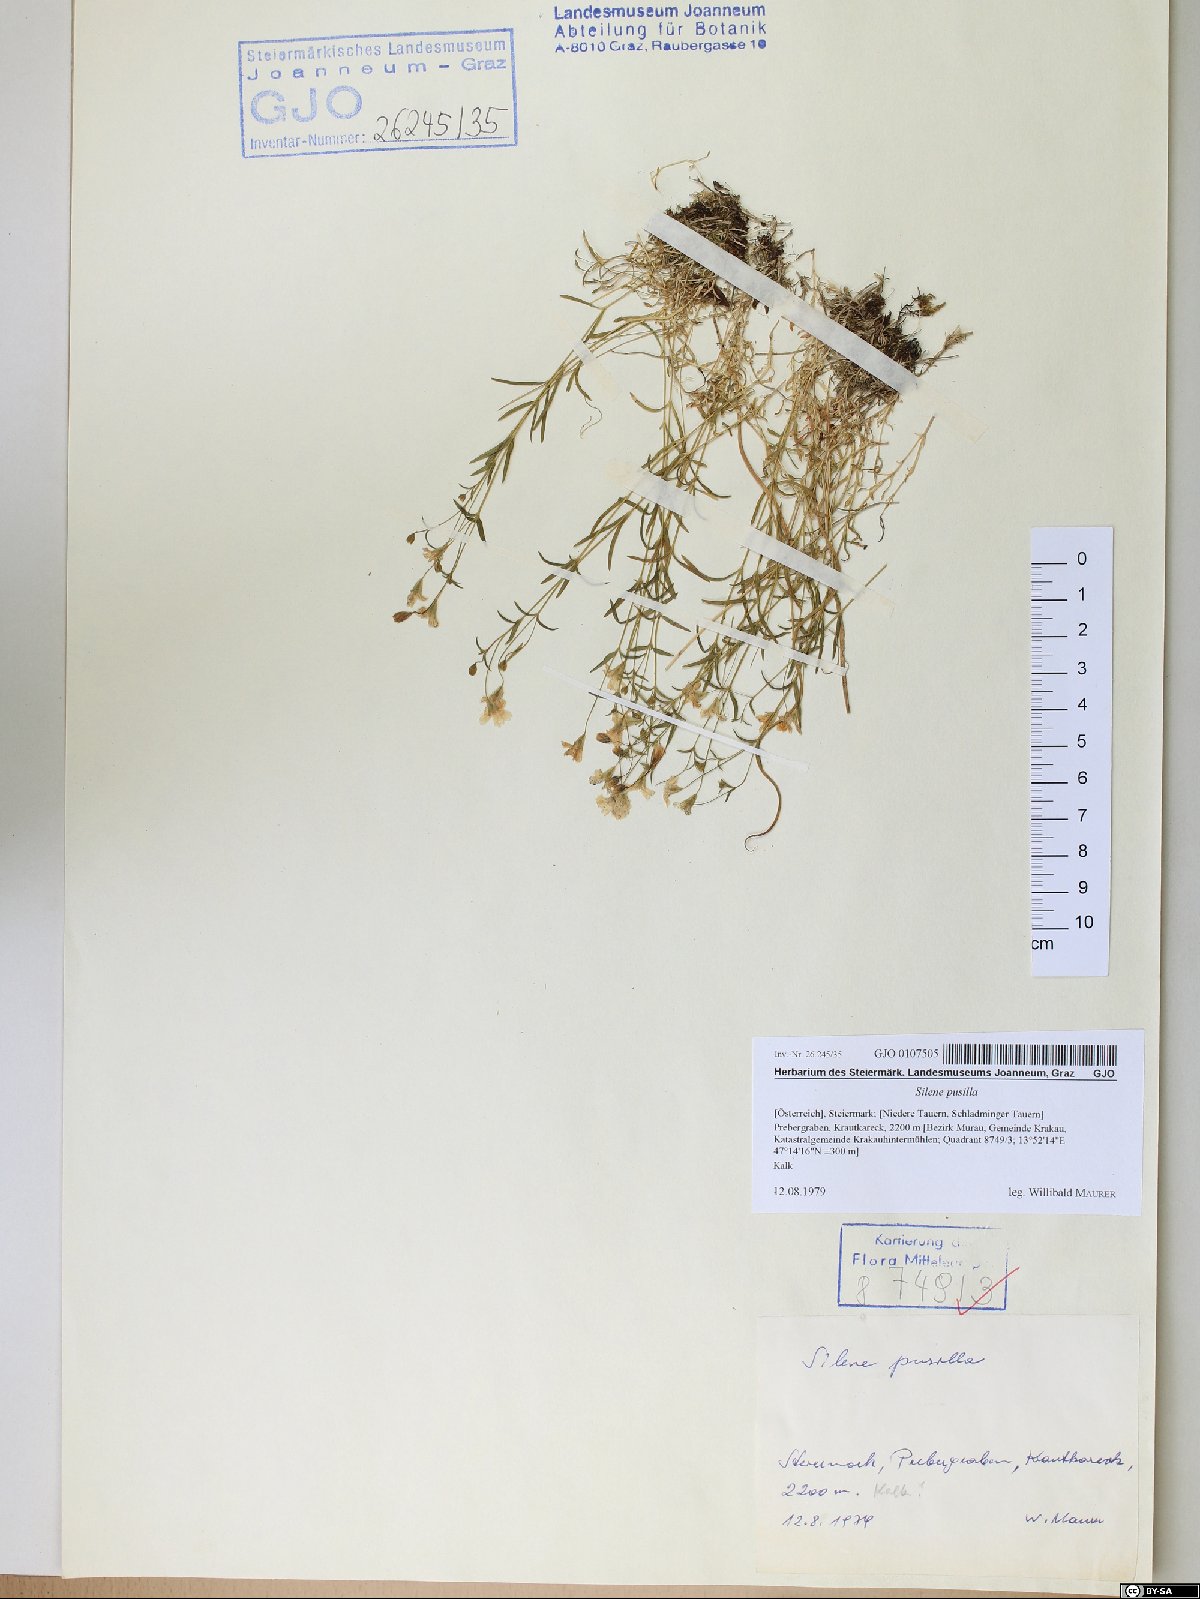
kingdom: Plantae
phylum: Tracheophyta
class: Magnoliopsida
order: Caryophyllales
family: Caryophyllaceae
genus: Heliosperma
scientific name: Heliosperma pusillum
